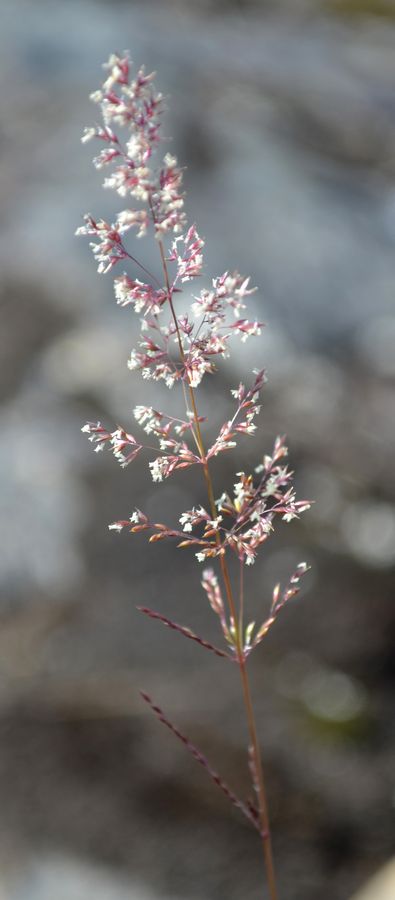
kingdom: Plantae
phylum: Tracheophyta
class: Liliopsida
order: Poales
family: Poaceae
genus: Calamagrostis
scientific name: Calamagrostis purpurea
